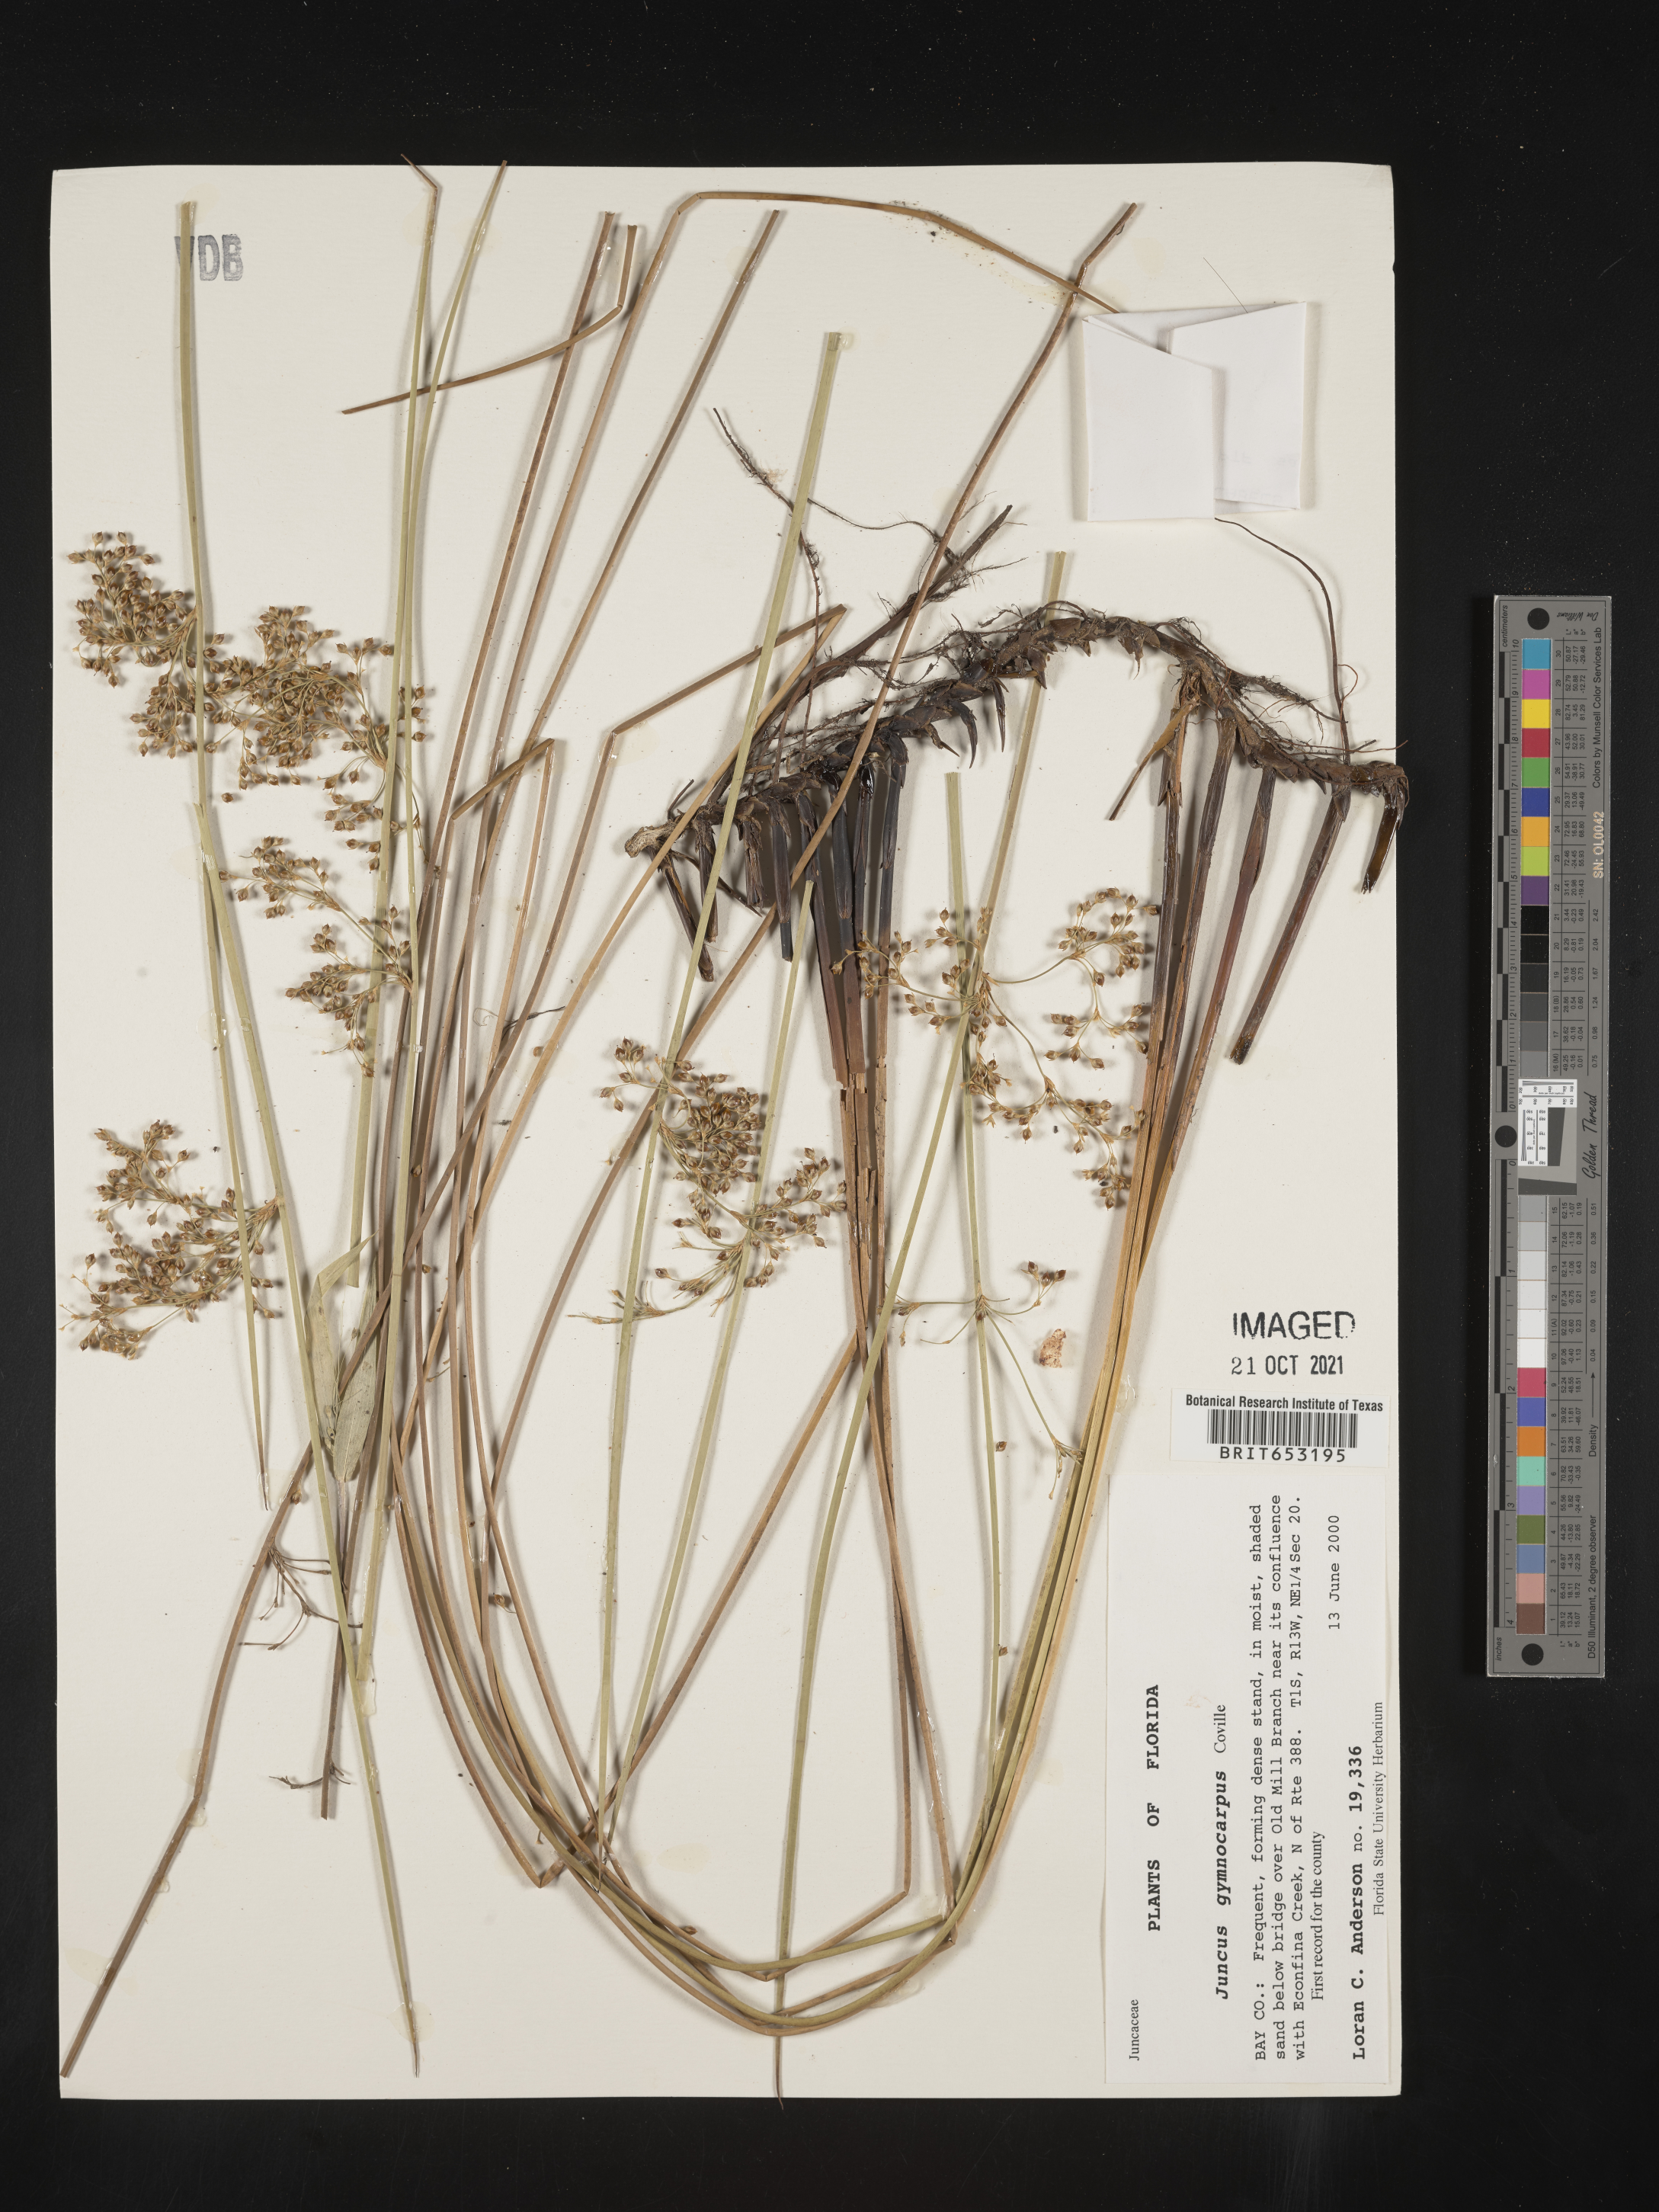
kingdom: Plantae
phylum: Tracheophyta
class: Liliopsida
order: Poales
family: Juncaceae
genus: Juncus
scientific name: Juncus gymnocarpus
